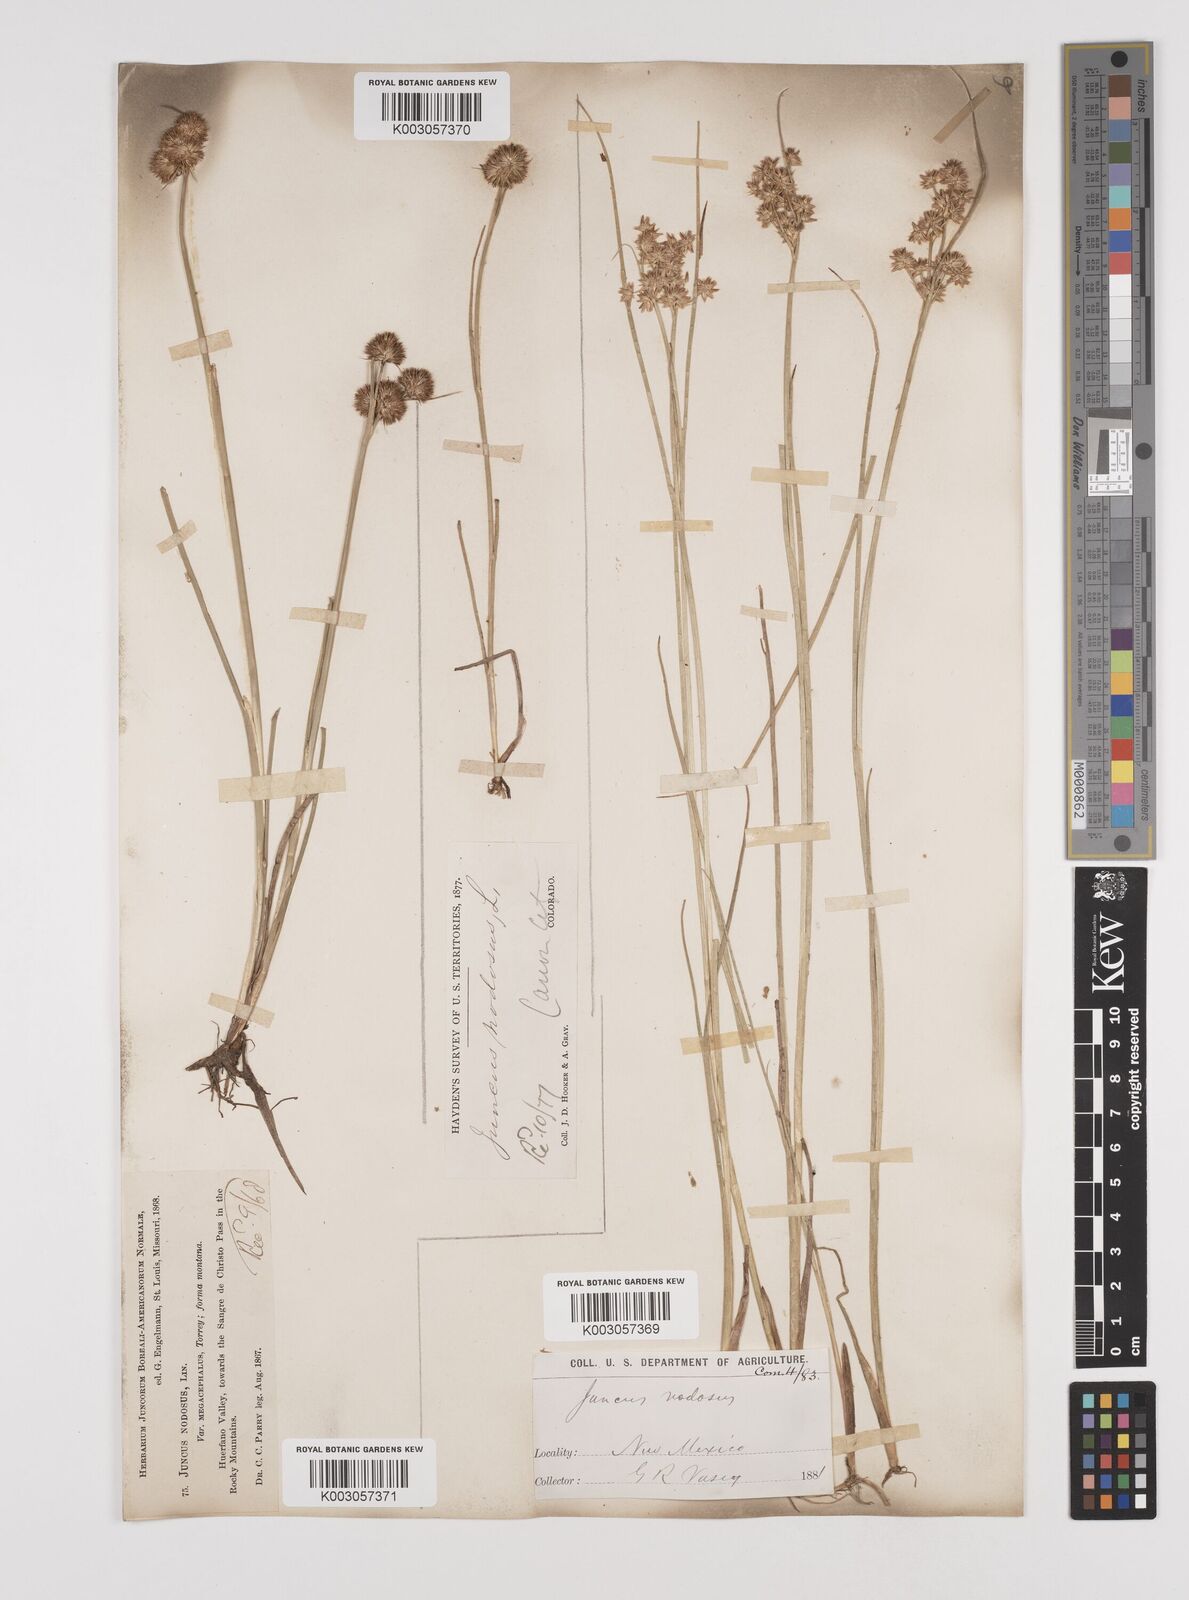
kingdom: Plantae
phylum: Tracheophyta
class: Liliopsida
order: Poales
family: Juncaceae
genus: Juncus
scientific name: Juncus nodosus
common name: Knotted rush
